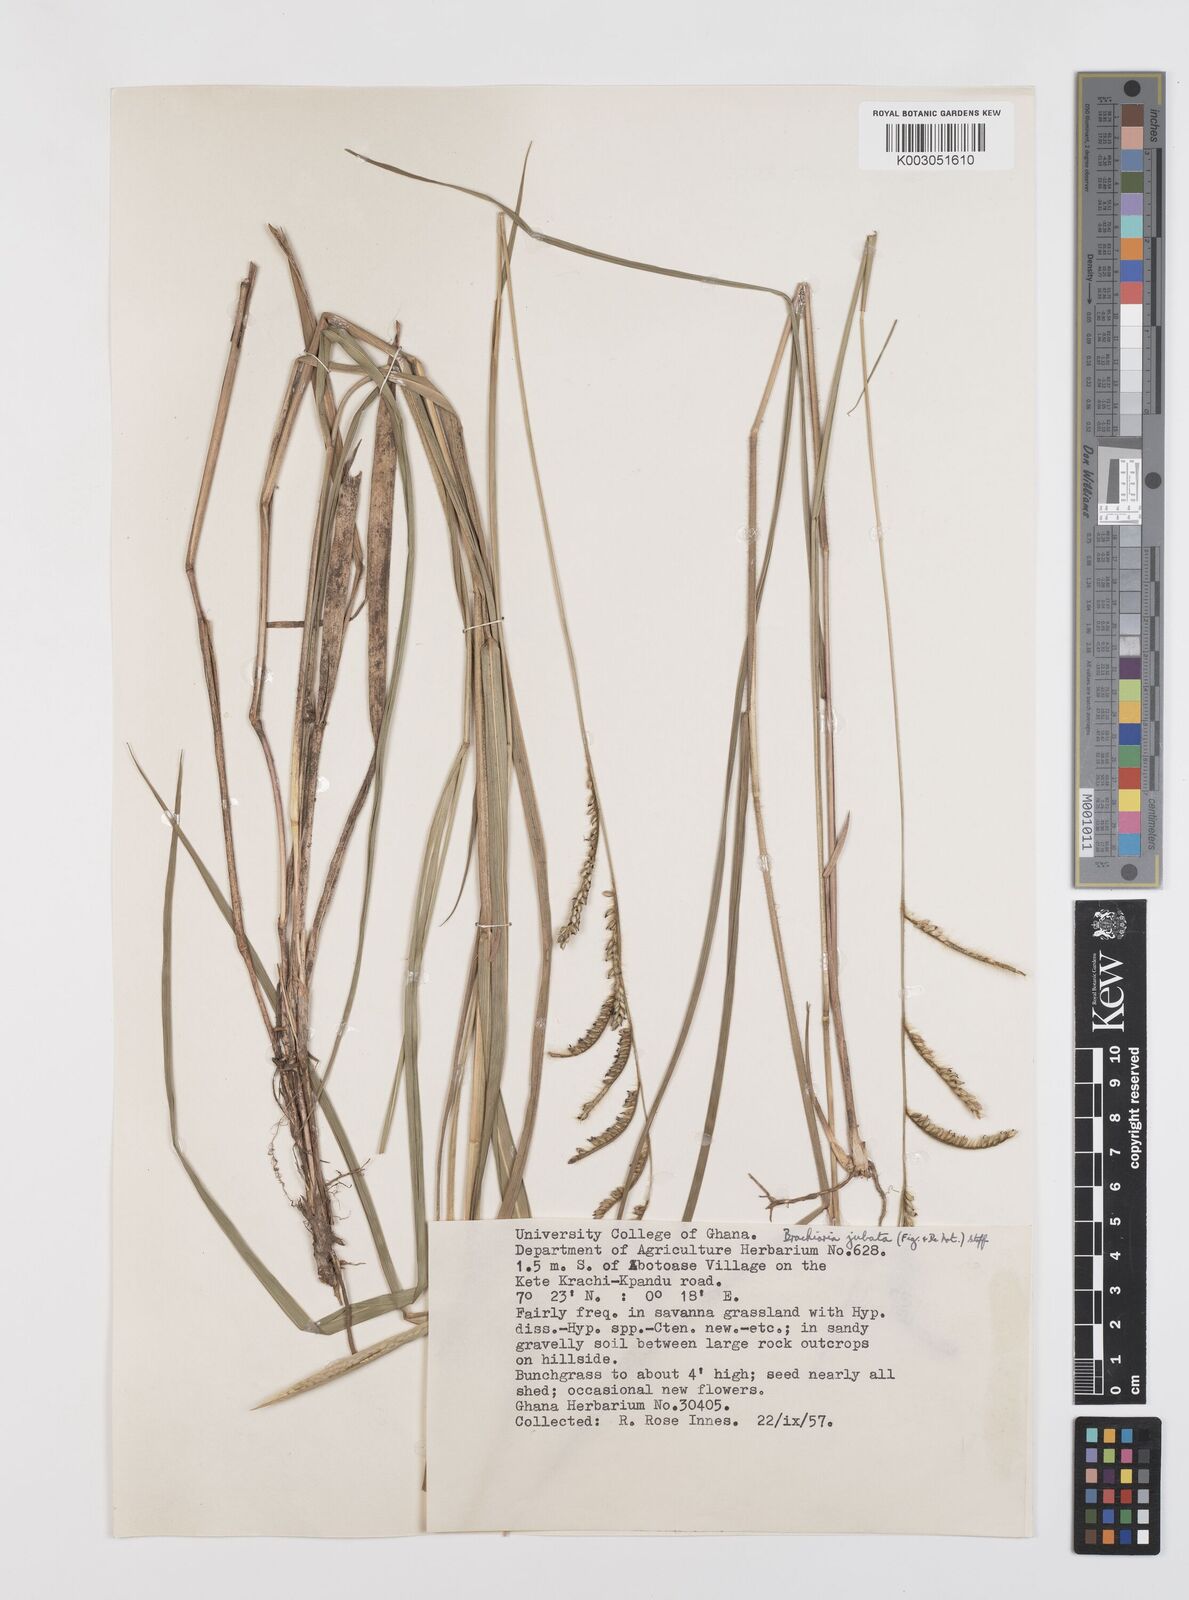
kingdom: Plantae
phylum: Tracheophyta
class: Liliopsida
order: Poales
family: Poaceae
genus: Urochloa
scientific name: Urochloa jubata
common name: Buffalograss
